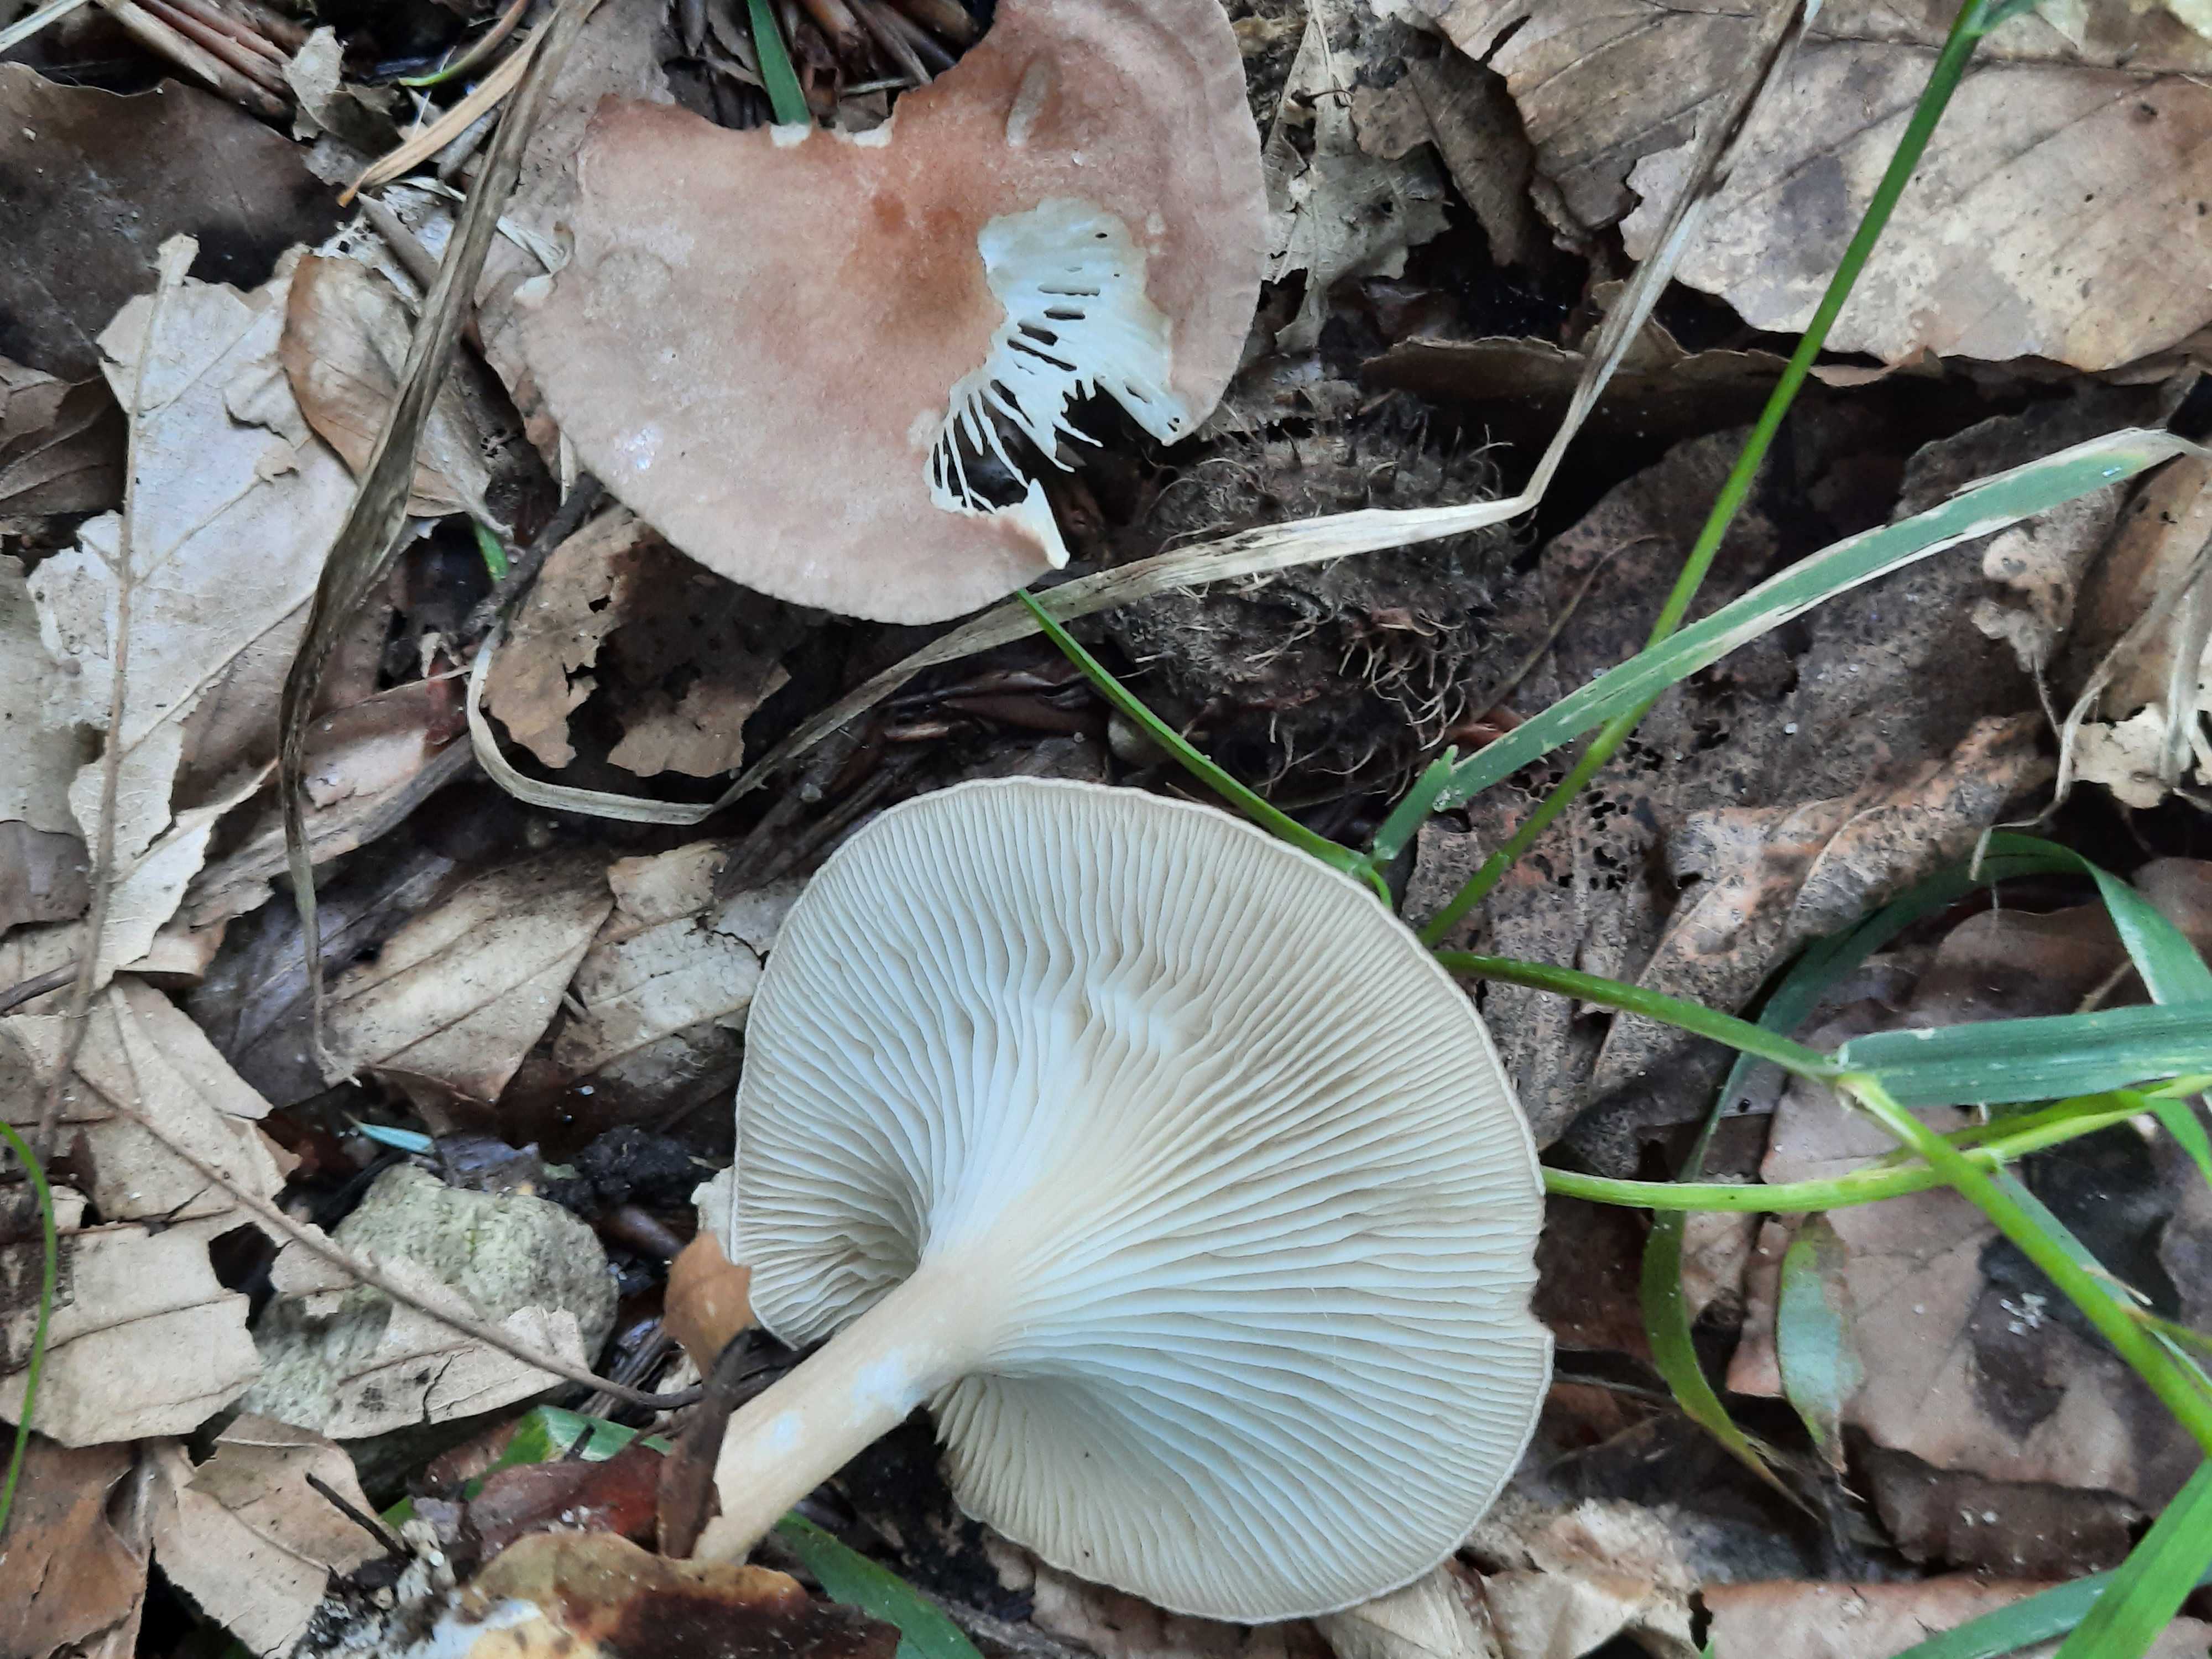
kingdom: Fungi
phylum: Basidiomycota
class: Agaricomycetes
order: Agaricales
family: Tricholomataceae
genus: Infundibulicybe
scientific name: Infundibulicybe gibba
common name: almindelig tragthat
